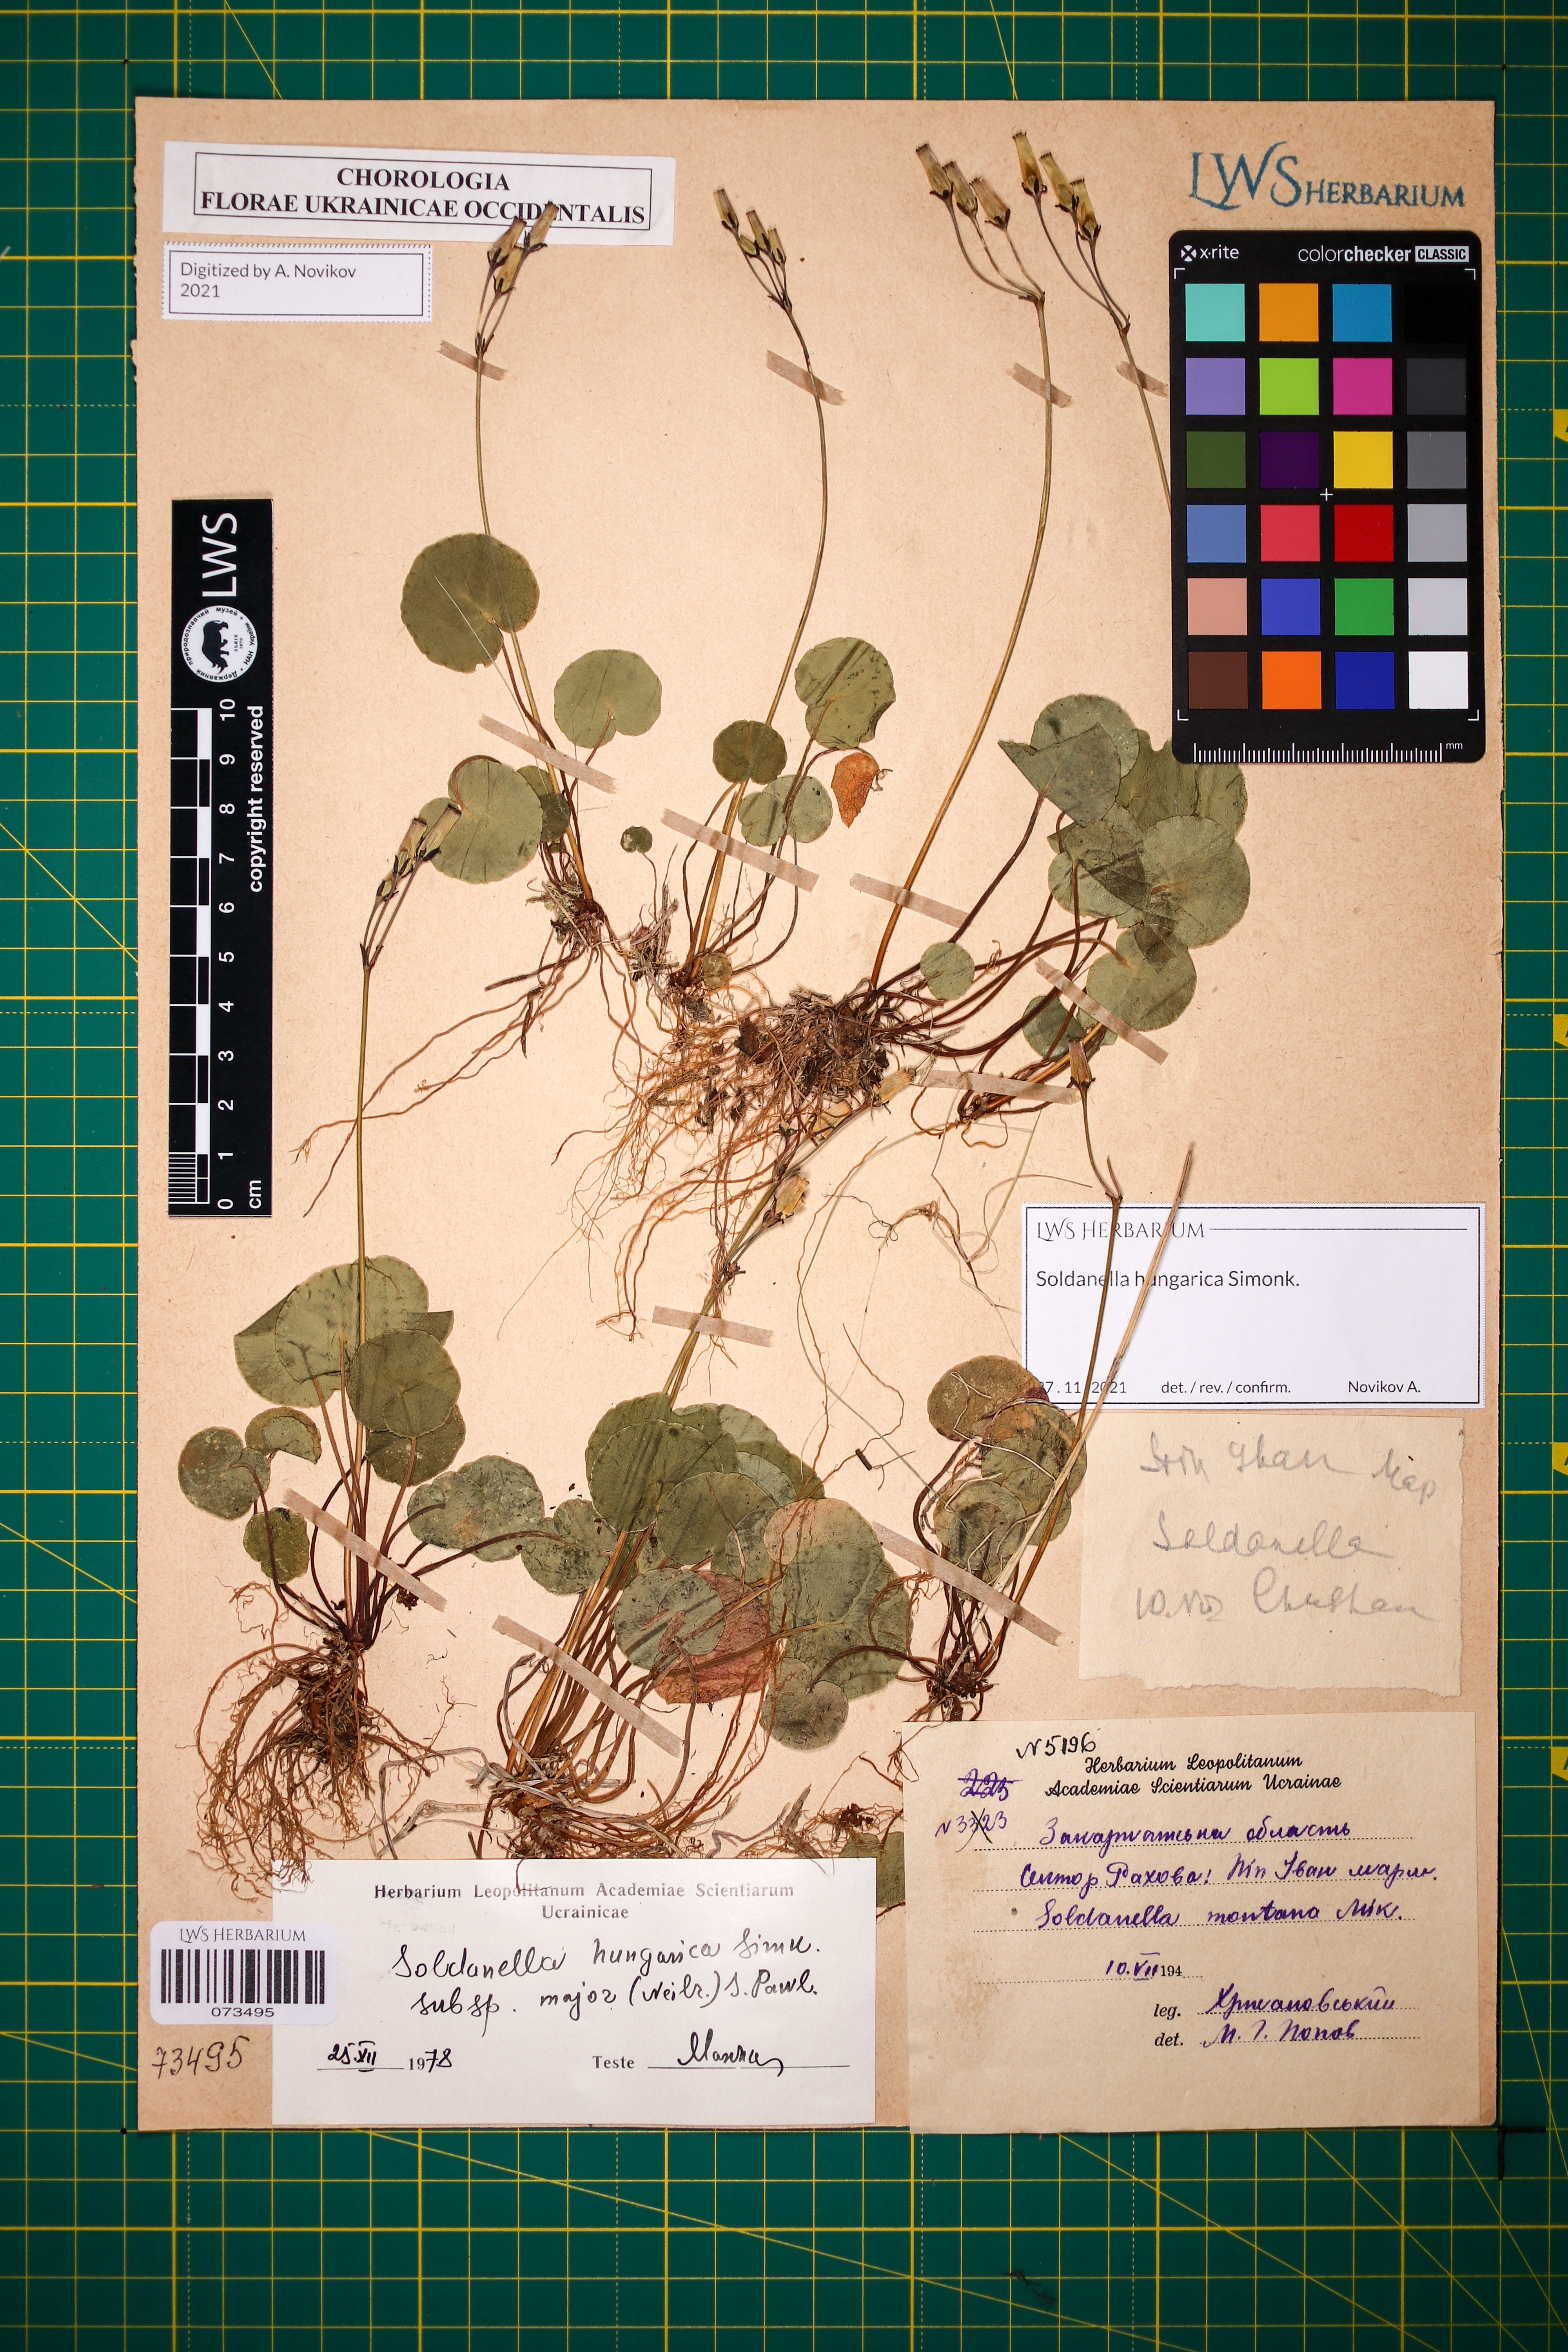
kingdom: Plantae
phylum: Tracheophyta
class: Magnoliopsida
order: Ericales
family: Primulaceae
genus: Soldanella
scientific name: Soldanella hungarica
